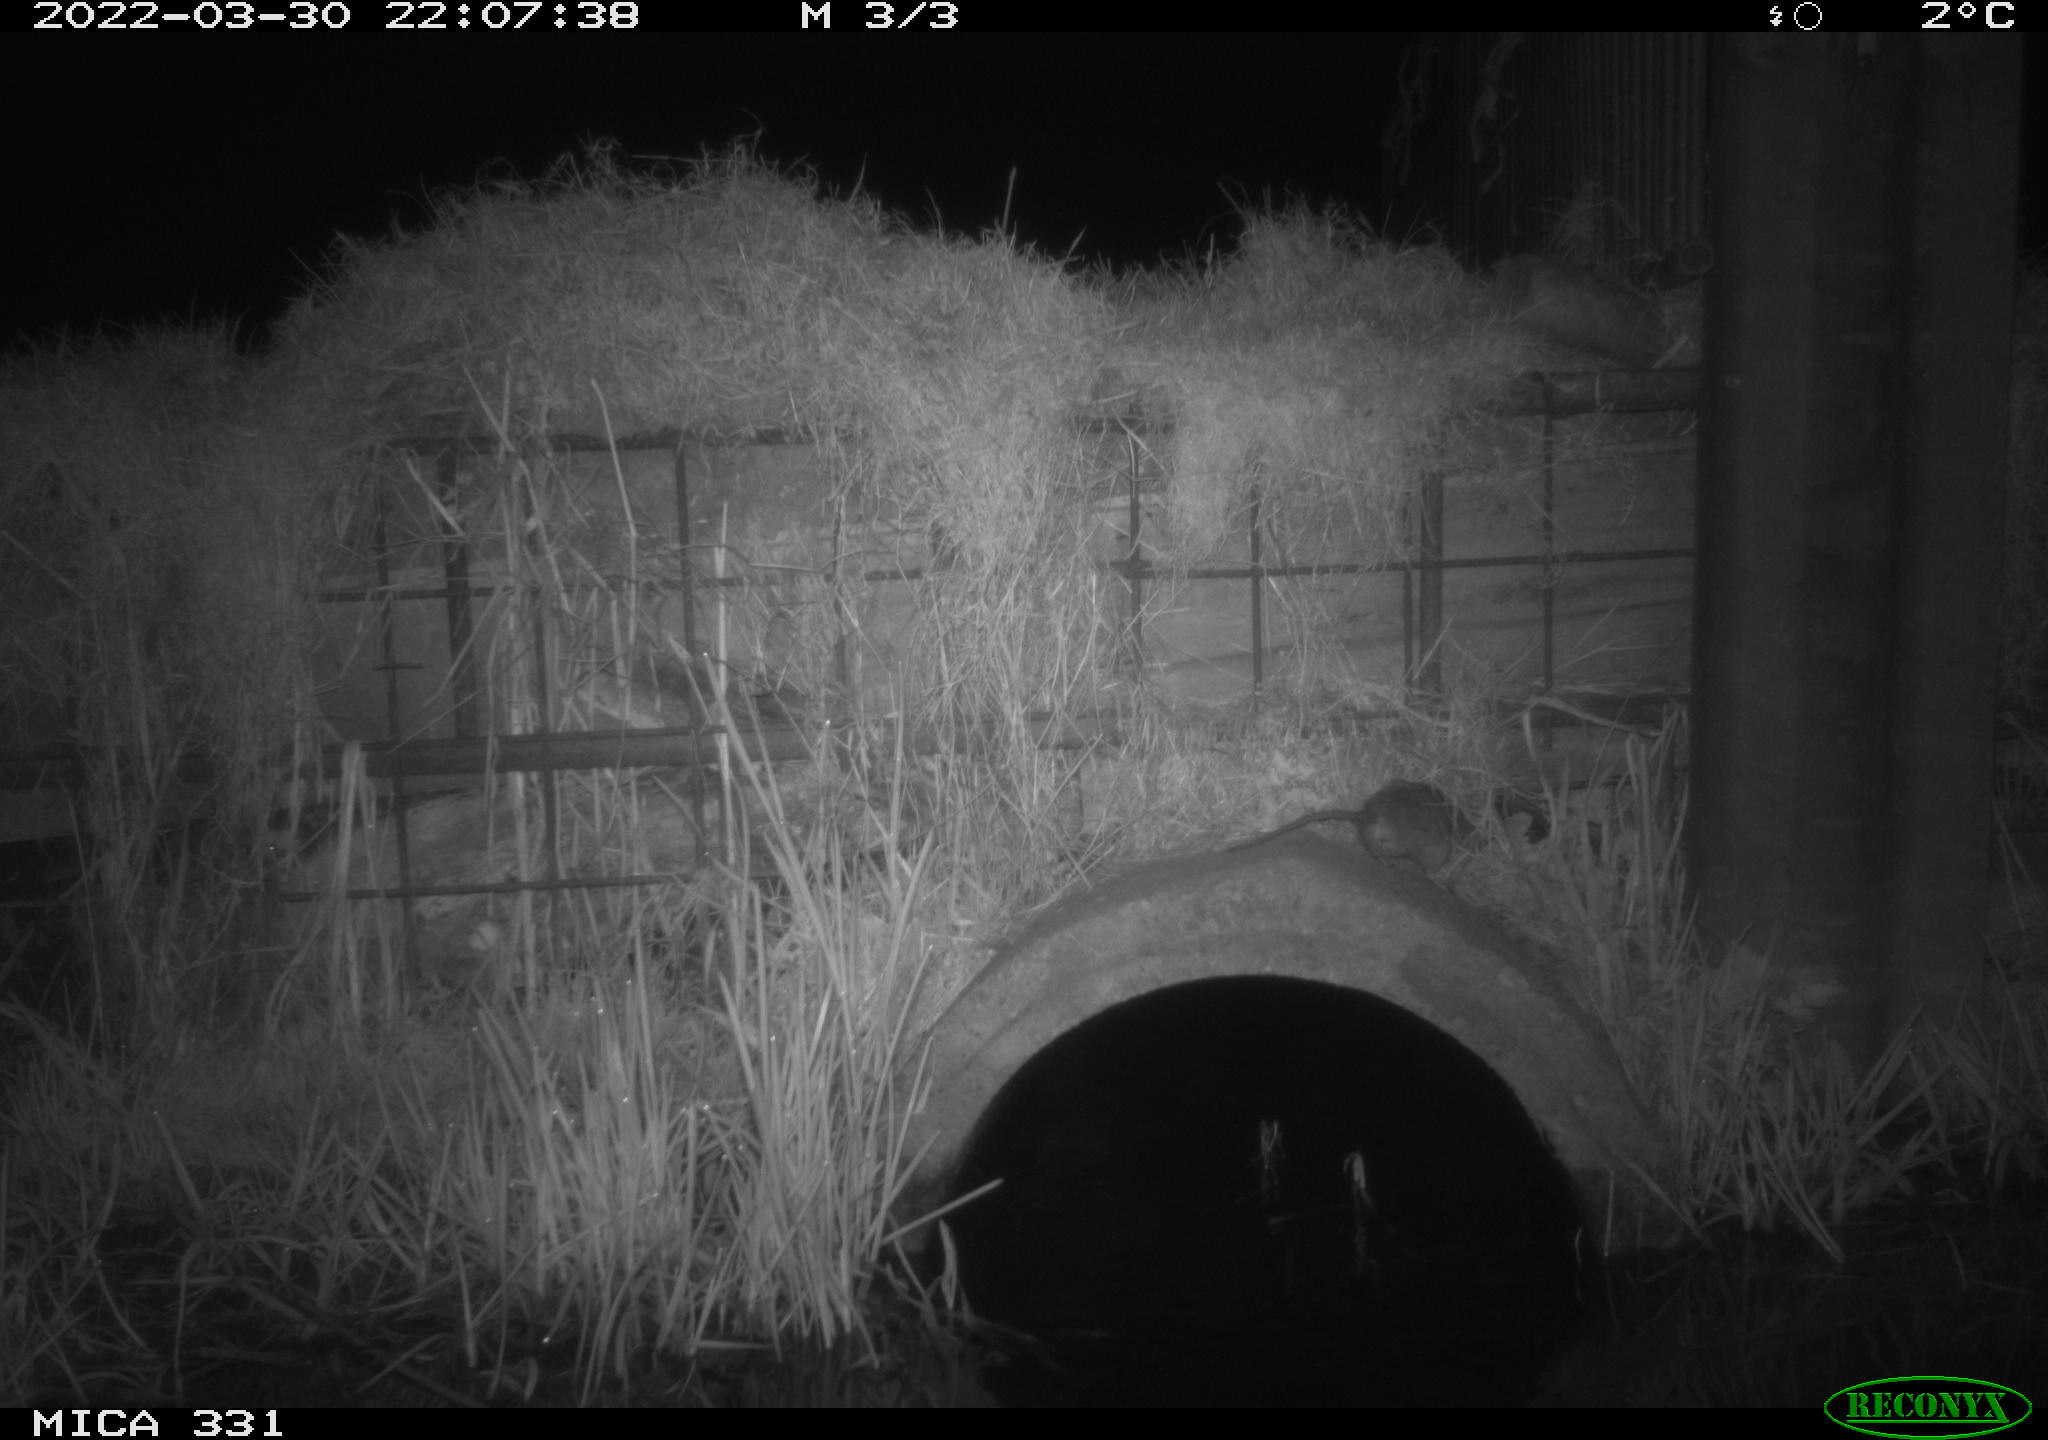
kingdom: Animalia
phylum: Chordata
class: Mammalia
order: Rodentia
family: Muridae
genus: Rattus
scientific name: Rattus norvegicus
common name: Brown rat
